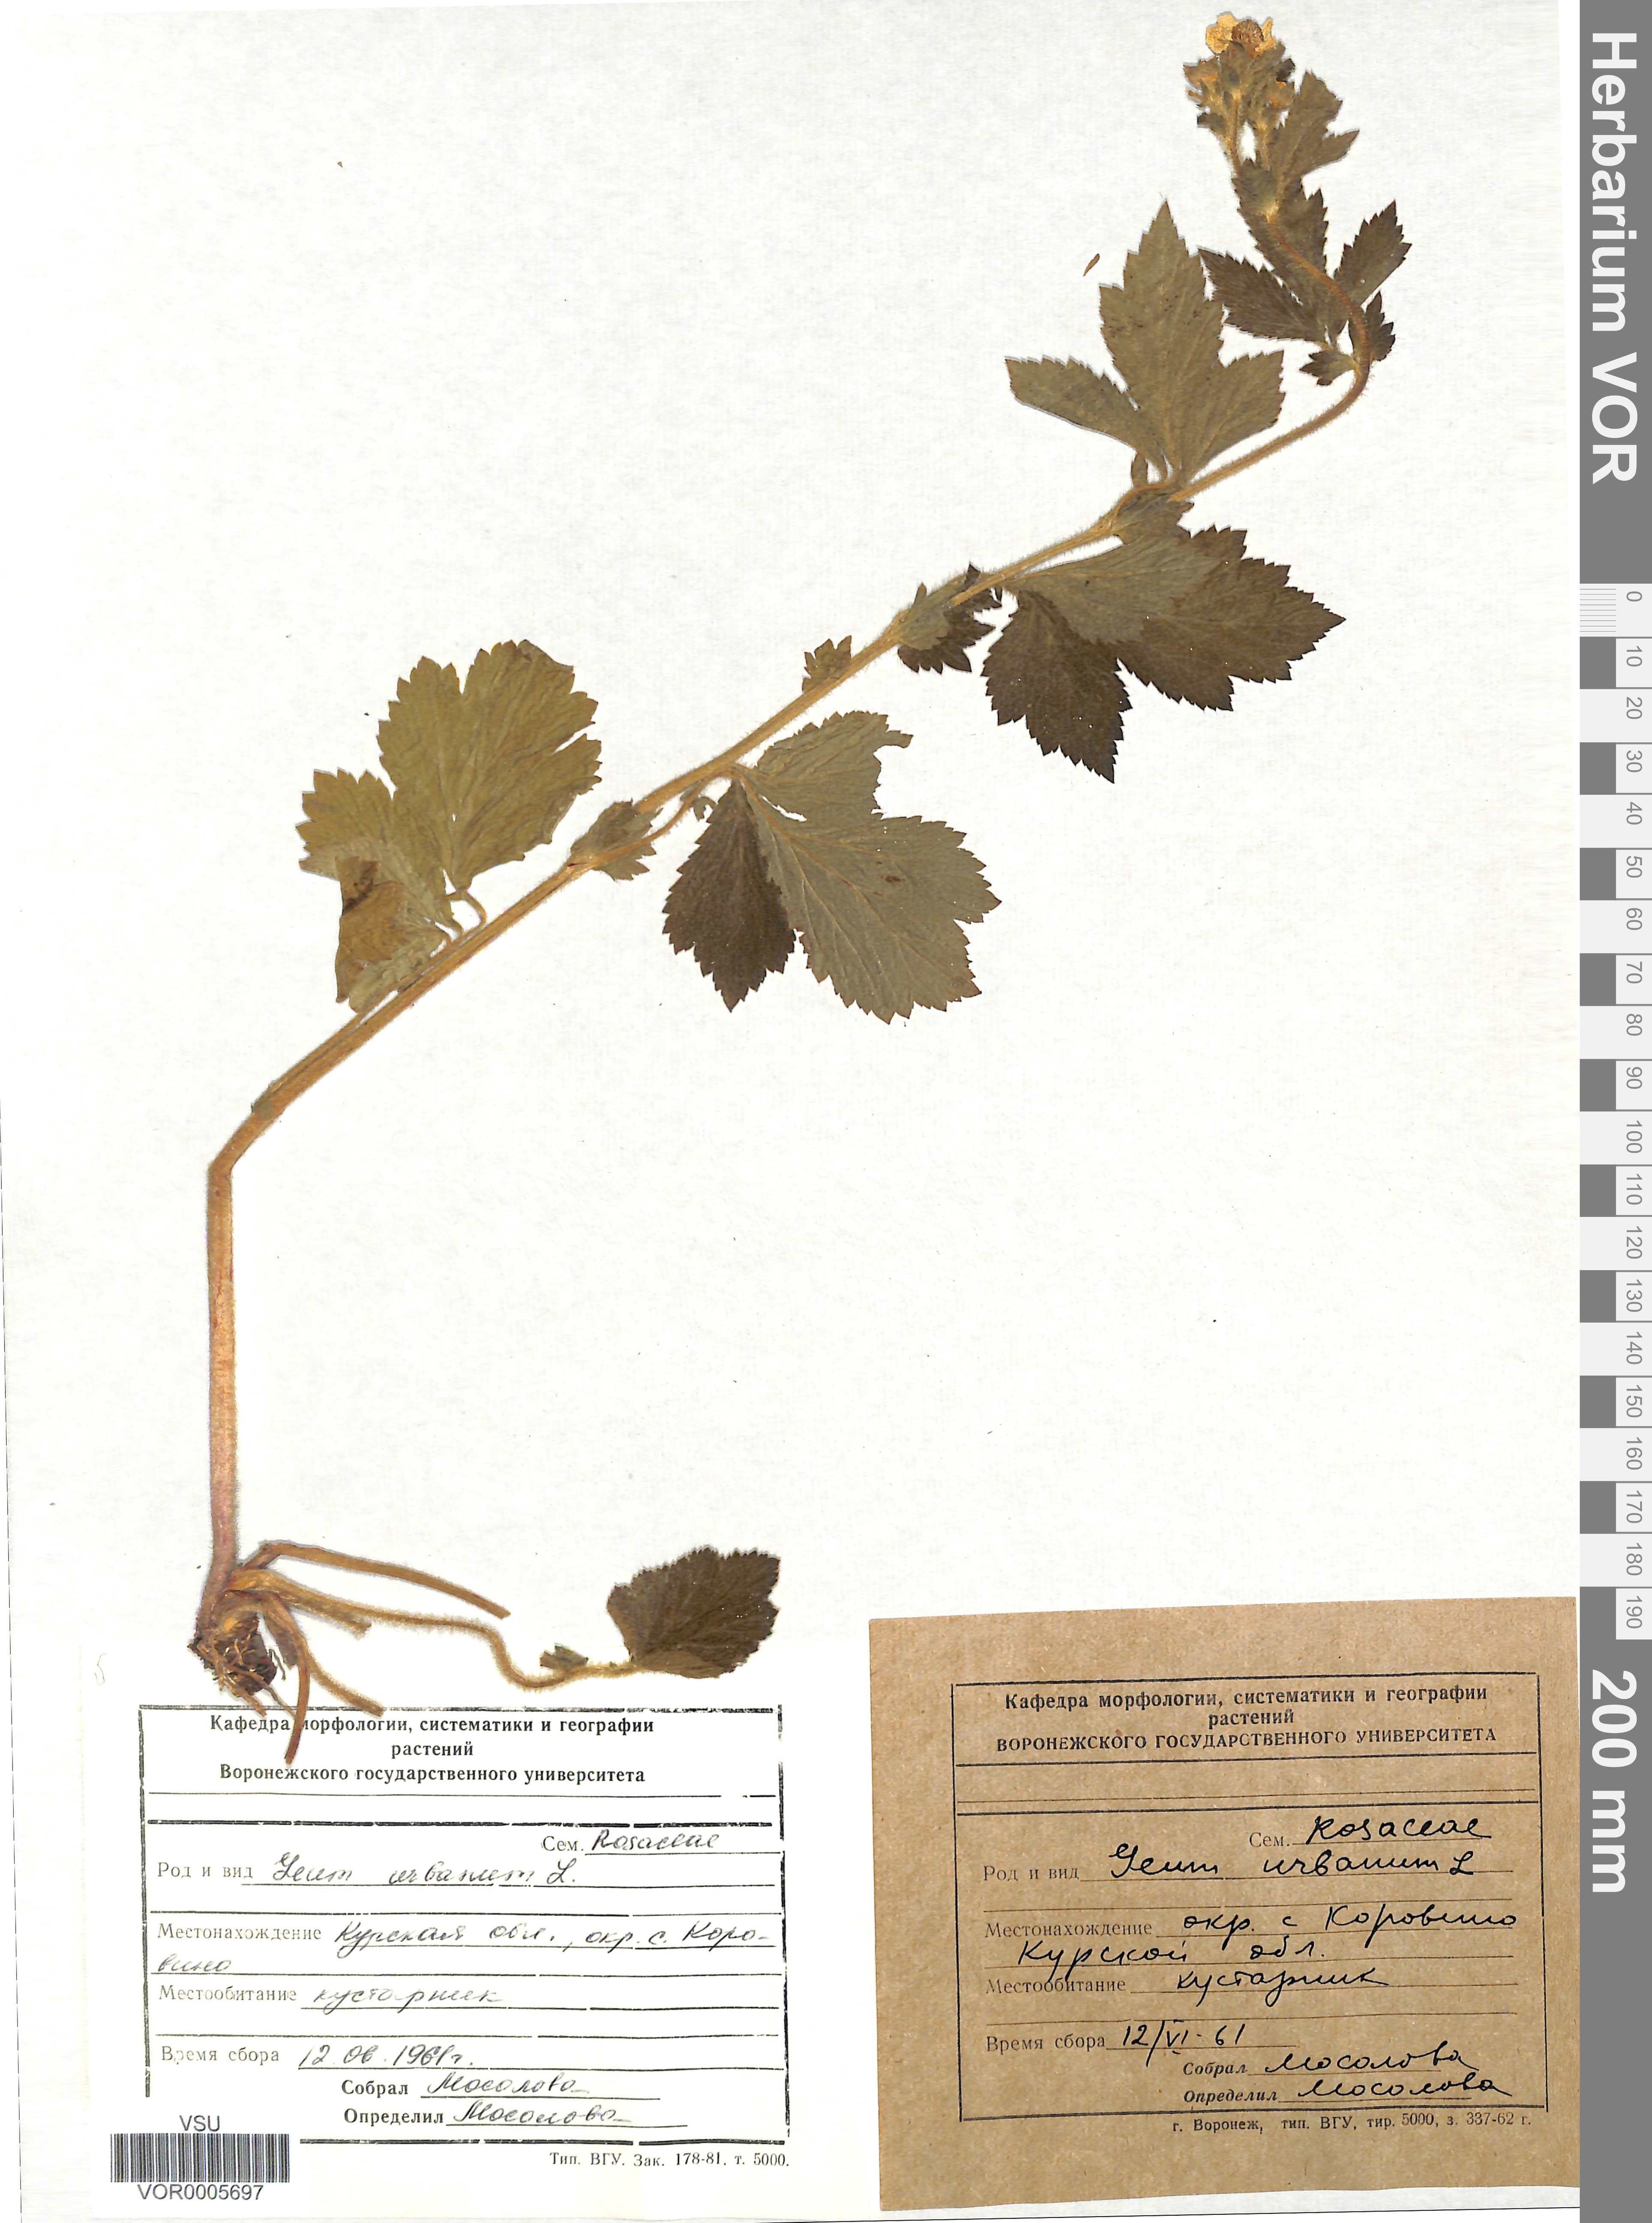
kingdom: Plantae
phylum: Tracheophyta
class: Magnoliopsida
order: Rosales
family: Rosaceae
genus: Geum
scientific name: Geum urbanum
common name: Wood avens
